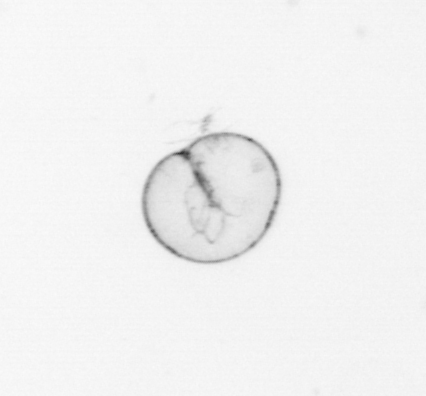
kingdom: Chromista
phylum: Myzozoa
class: Dinophyceae
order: Noctilucales
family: Noctilucaceae
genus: Noctiluca
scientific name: Noctiluca scintillans
